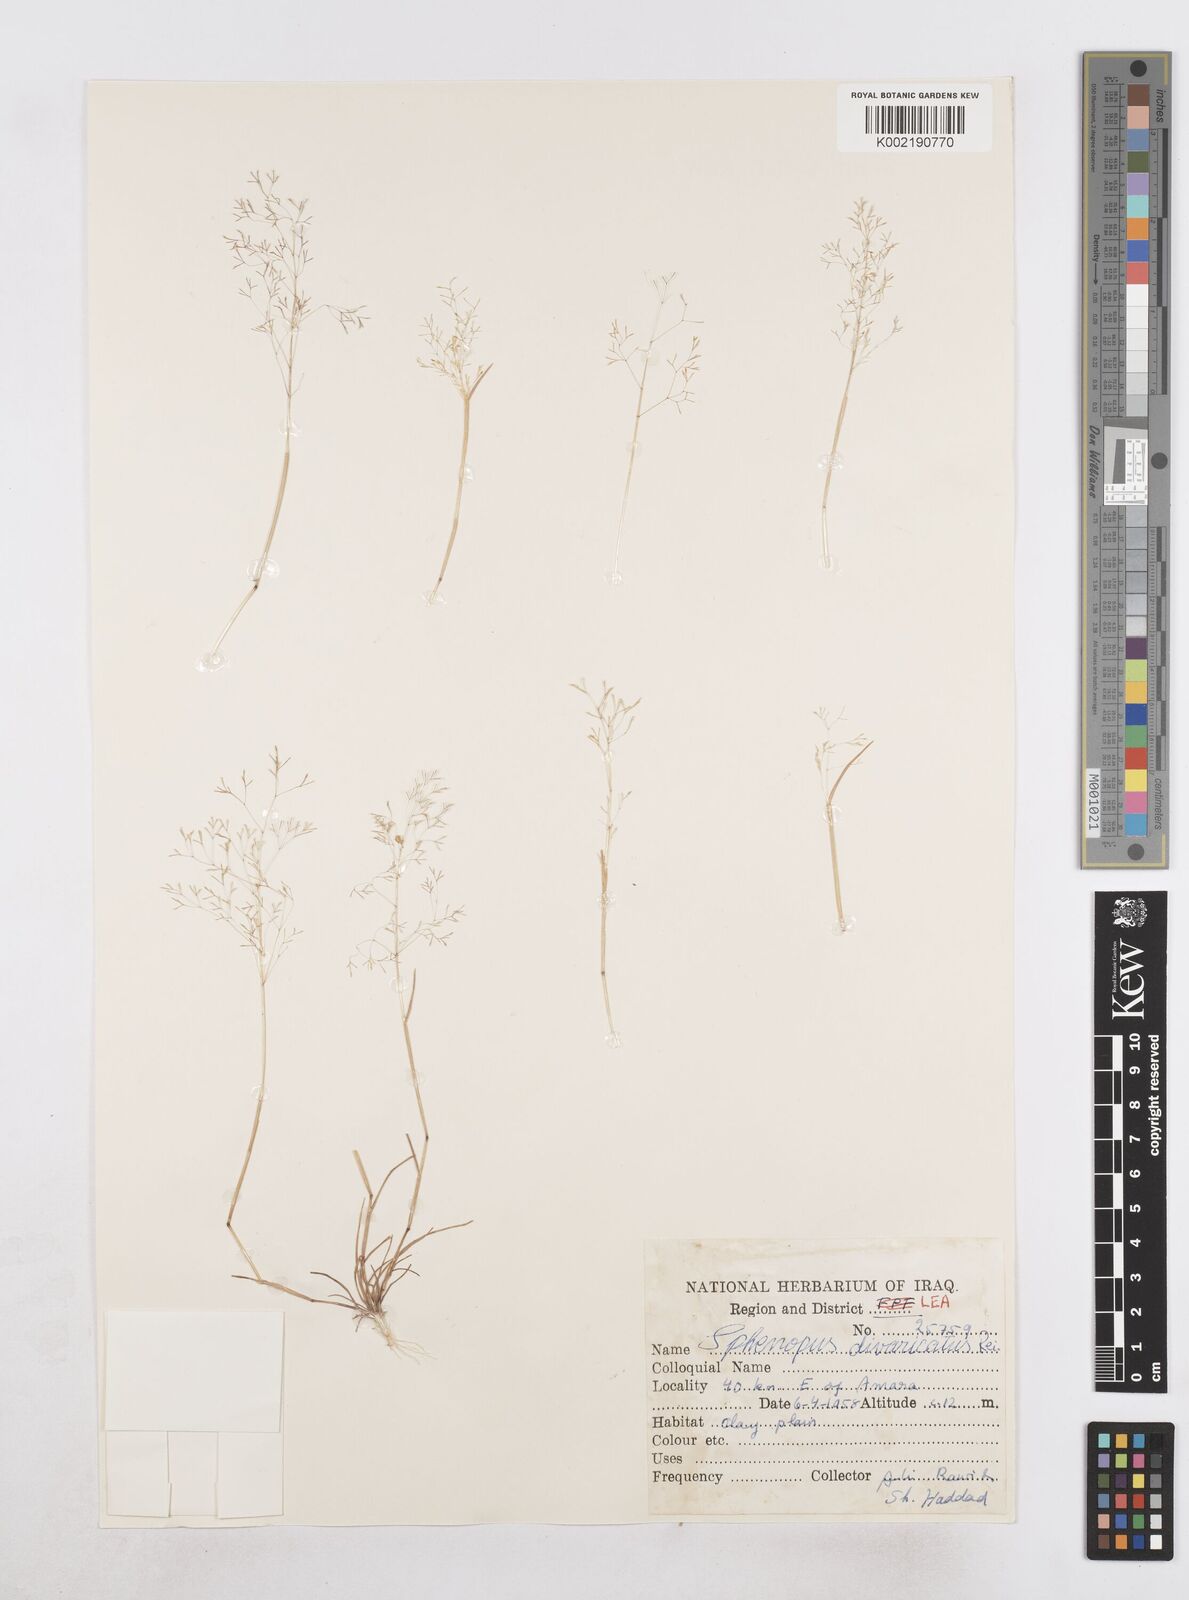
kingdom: Plantae
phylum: Tracheophyta
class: Liliopsida
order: Poales
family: Poaceae
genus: Sphenopus
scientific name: Sphenopus divaricatus
